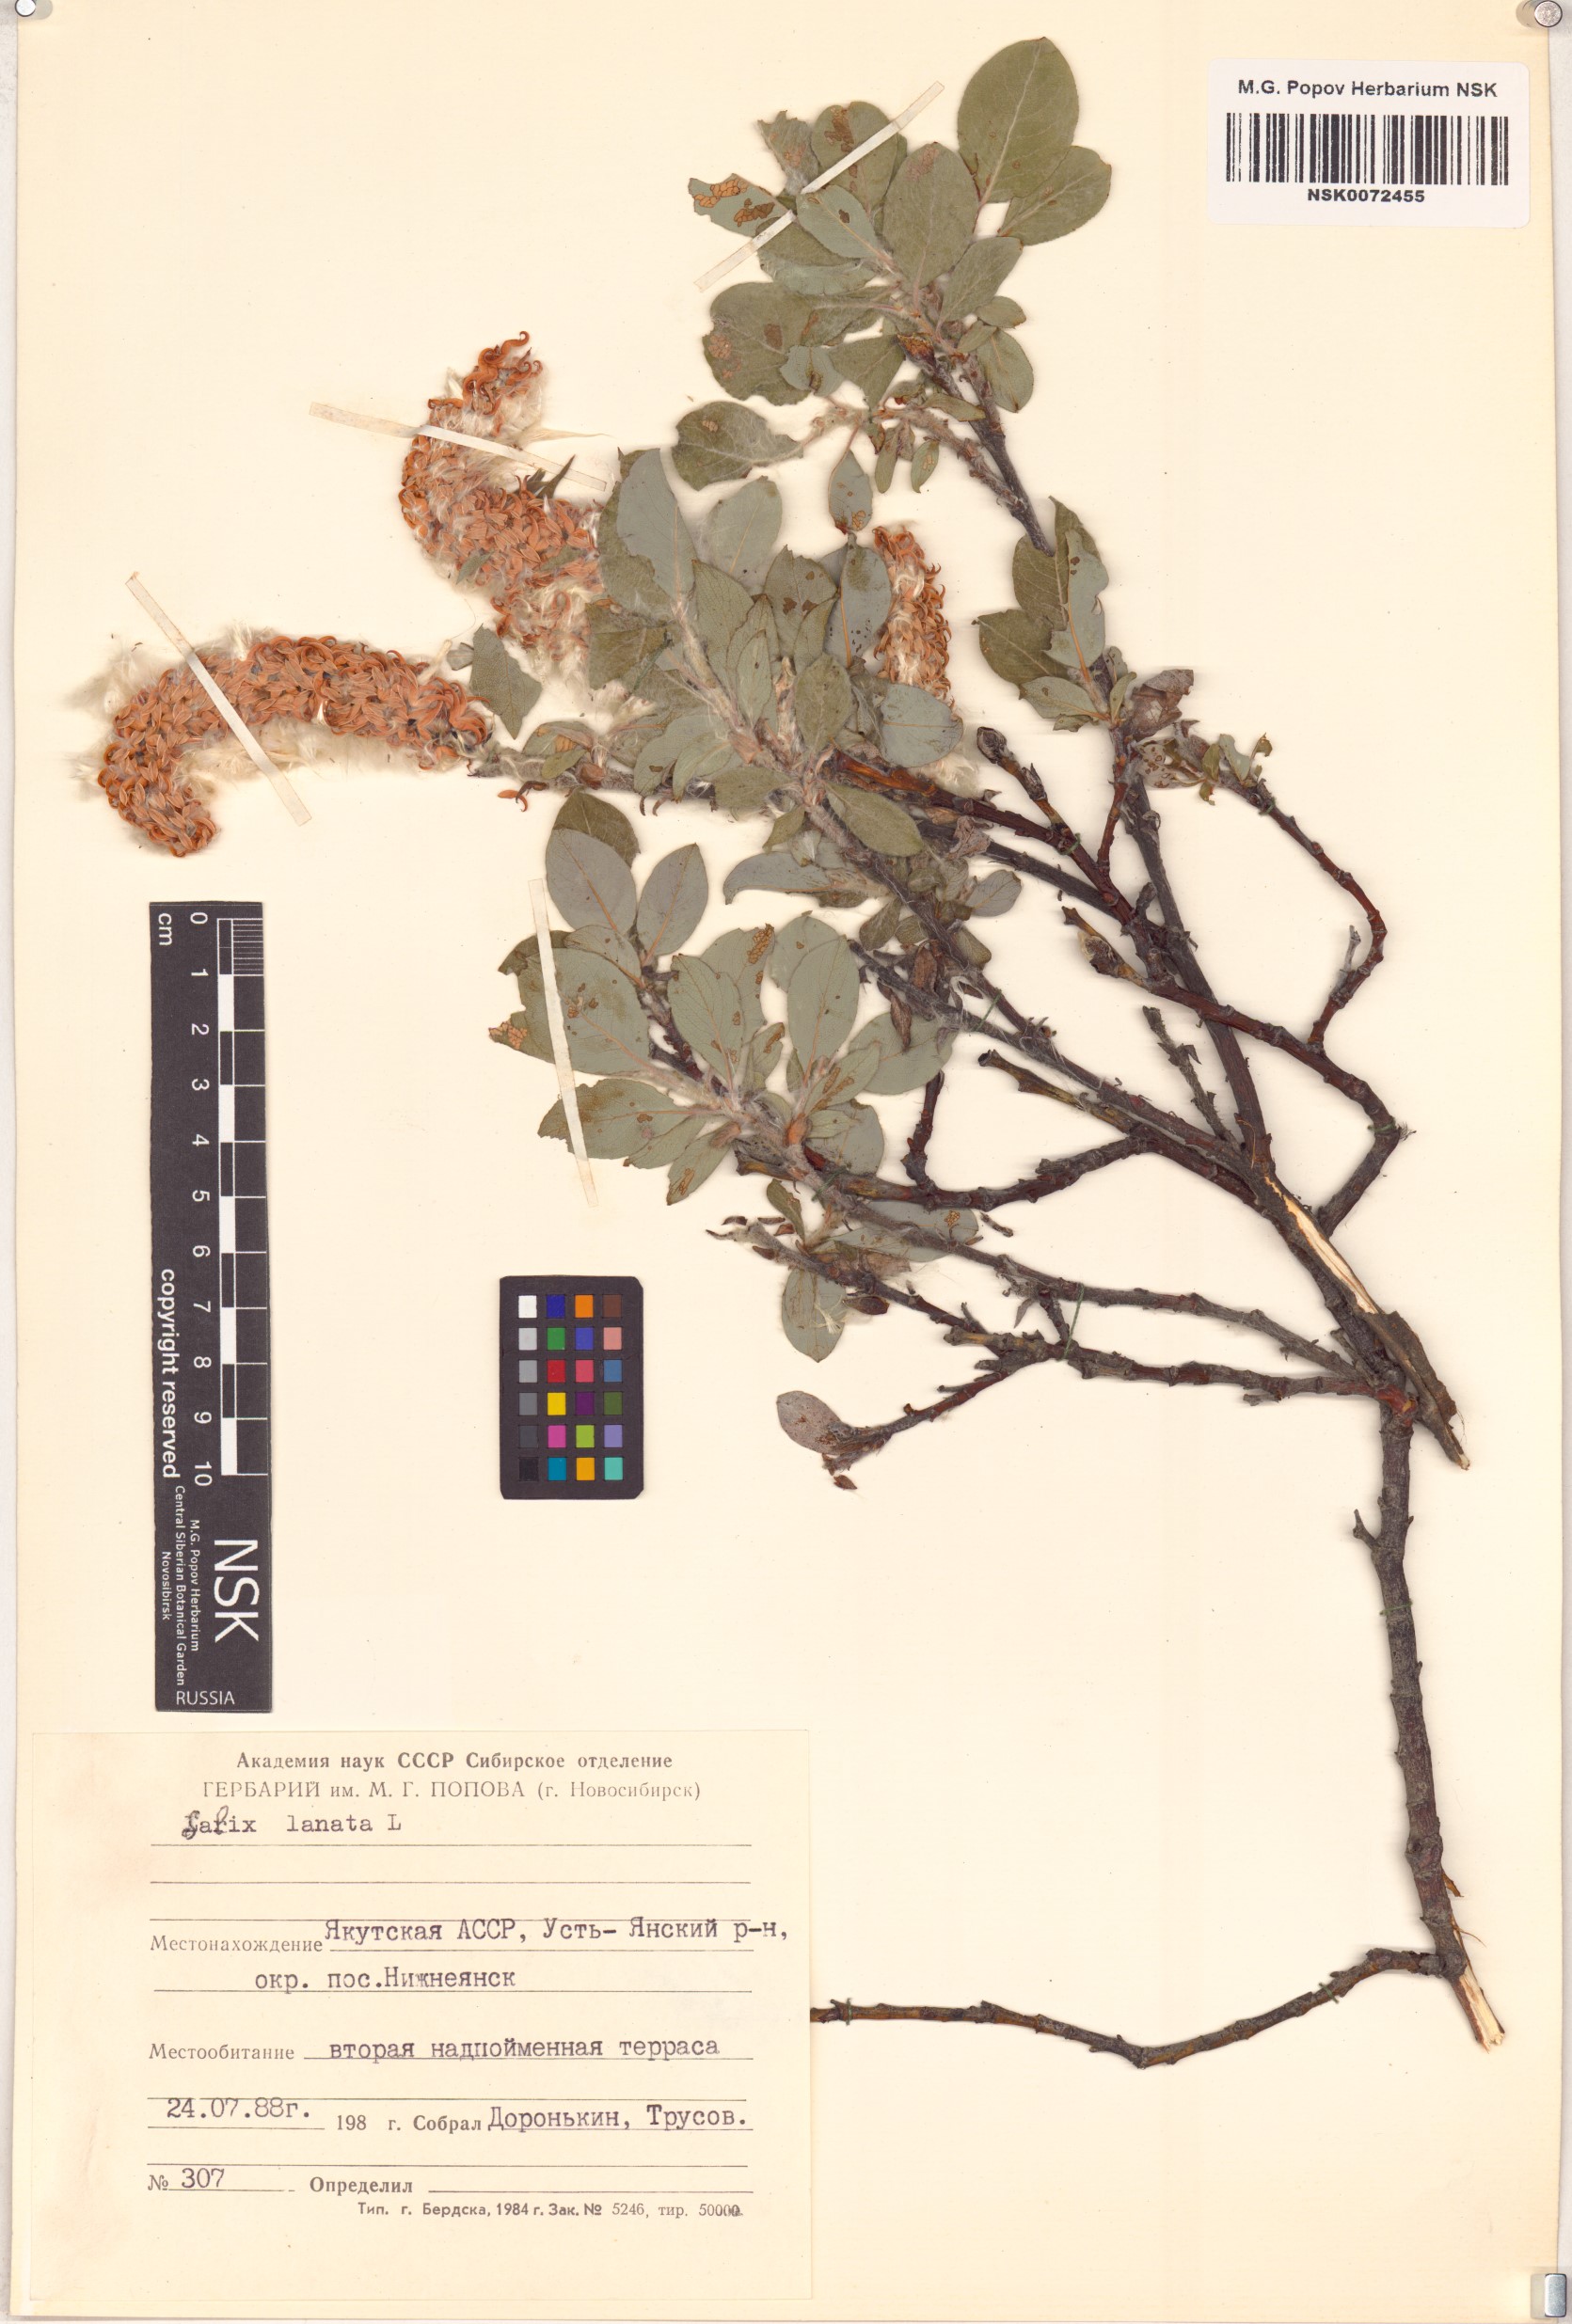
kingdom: Plantae
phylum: Tracheophyta
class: Magnoliopsida
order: Malpighiales
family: Salicaceae
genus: Salix
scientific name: Salix lanata
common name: Woolly willow
